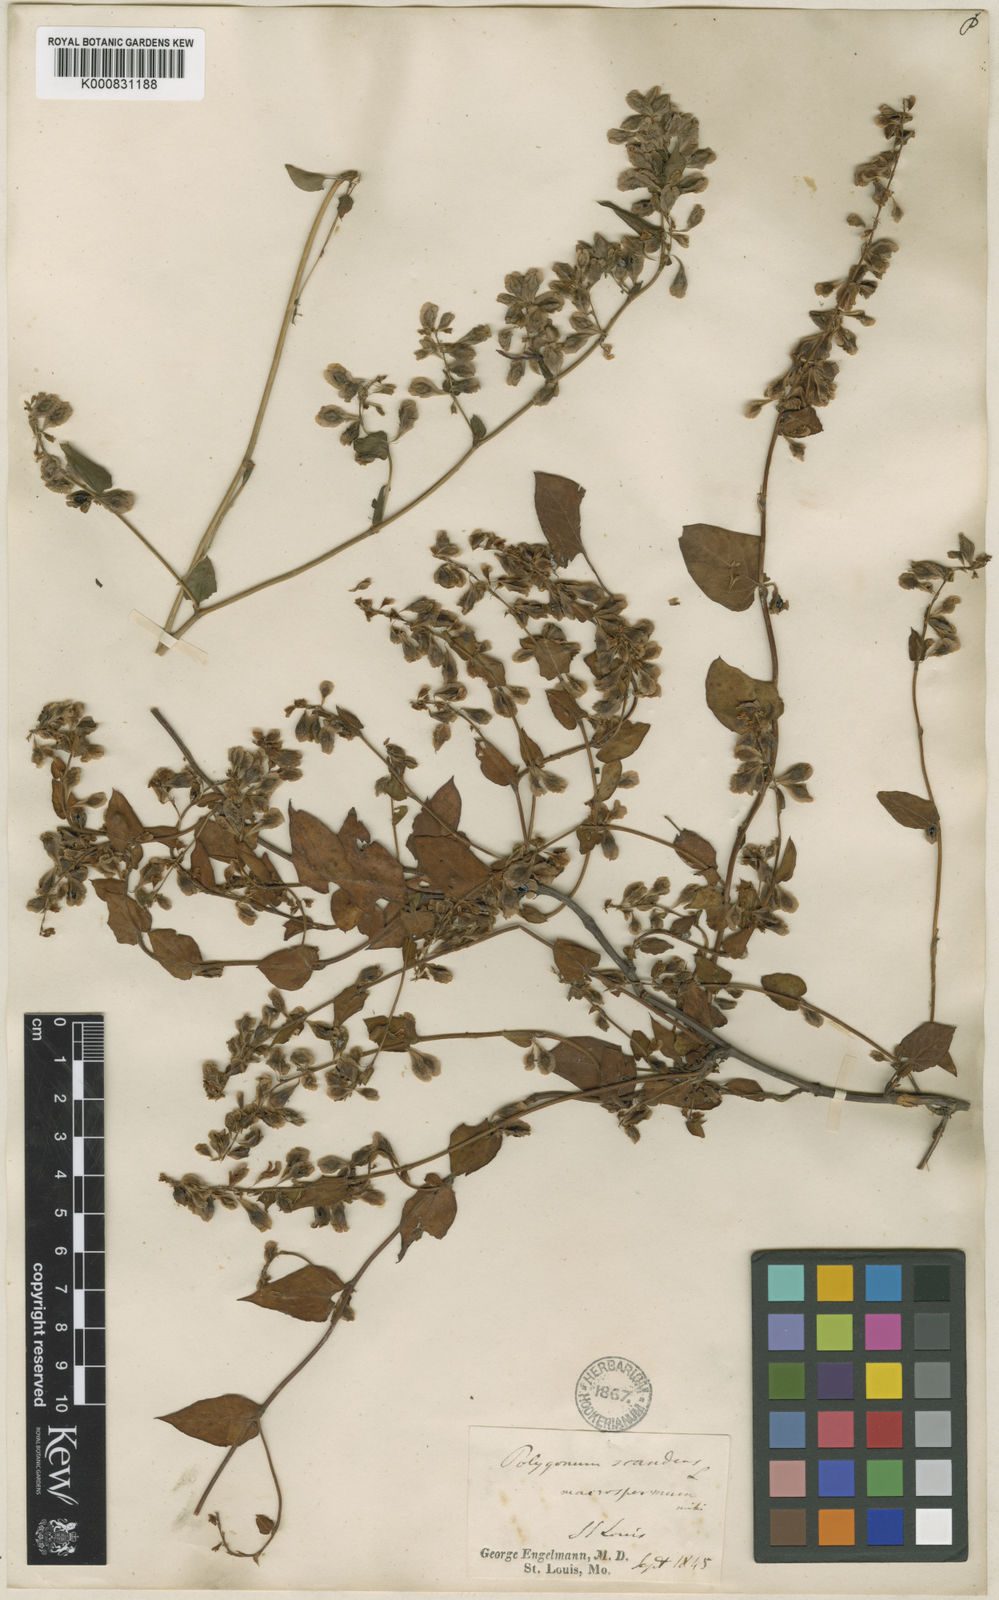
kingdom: Plantae
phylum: Tracheophyta
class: Magnoliopsida
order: Caryophyllales
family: Polygonaceae
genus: Fallopia
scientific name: Fallopia scandens
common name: Climbing false buckwheat
